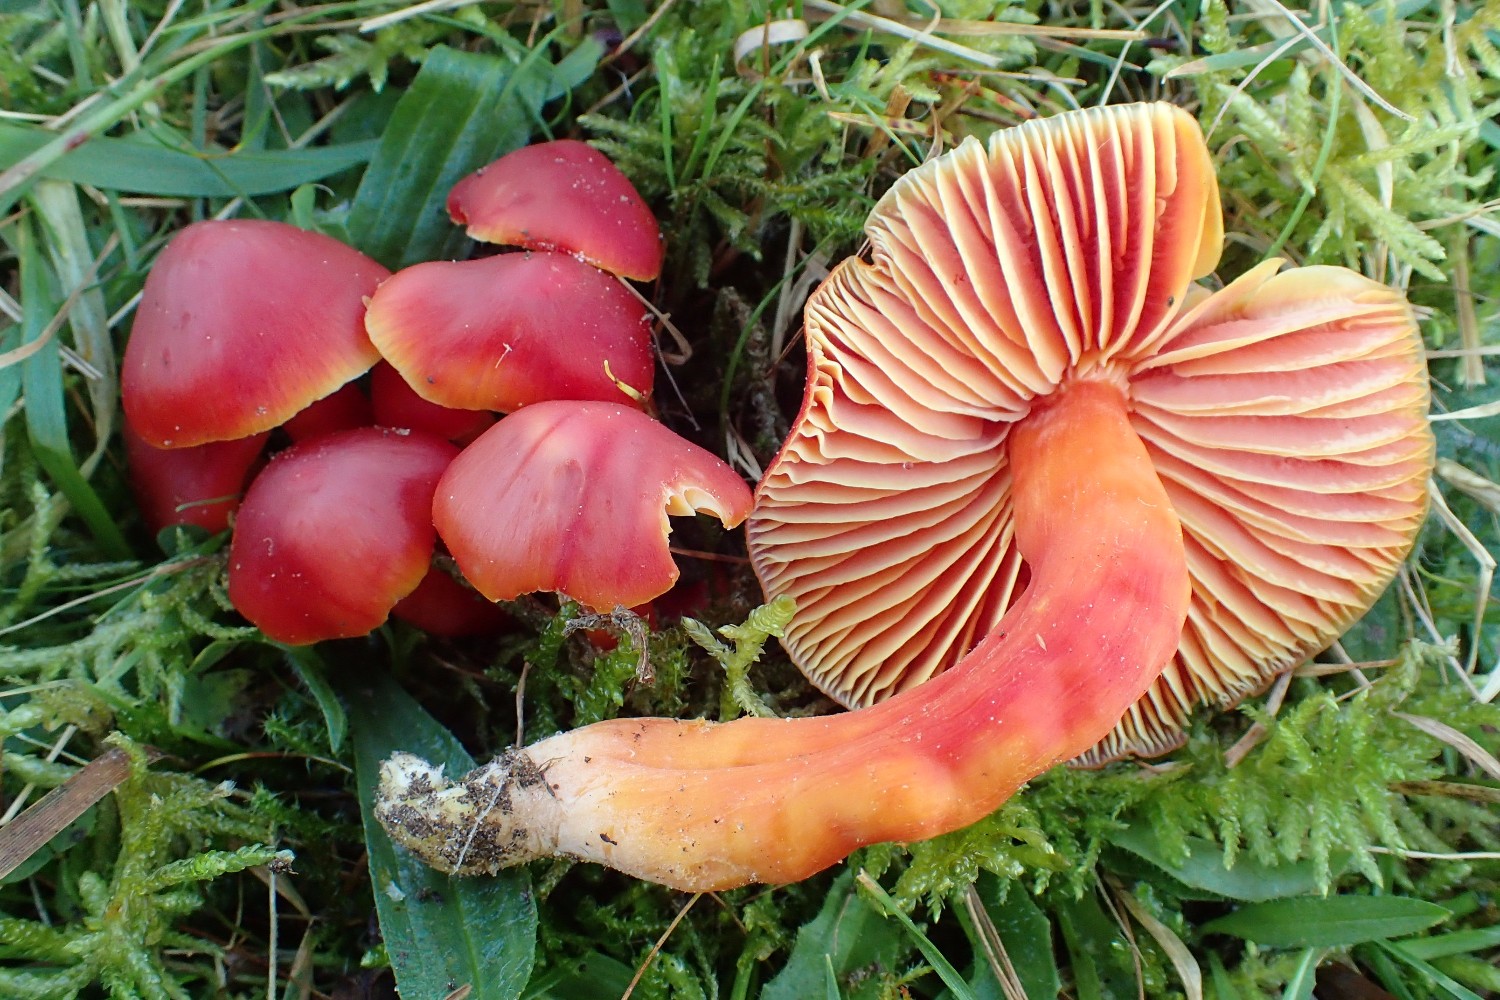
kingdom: Fungi
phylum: Basidiomycota
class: Agaricomycetes
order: Agaricales
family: Hygrophoraceae
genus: Hygrocybe
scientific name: Hygrocybe splendidissima
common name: knaldrød vokshat
